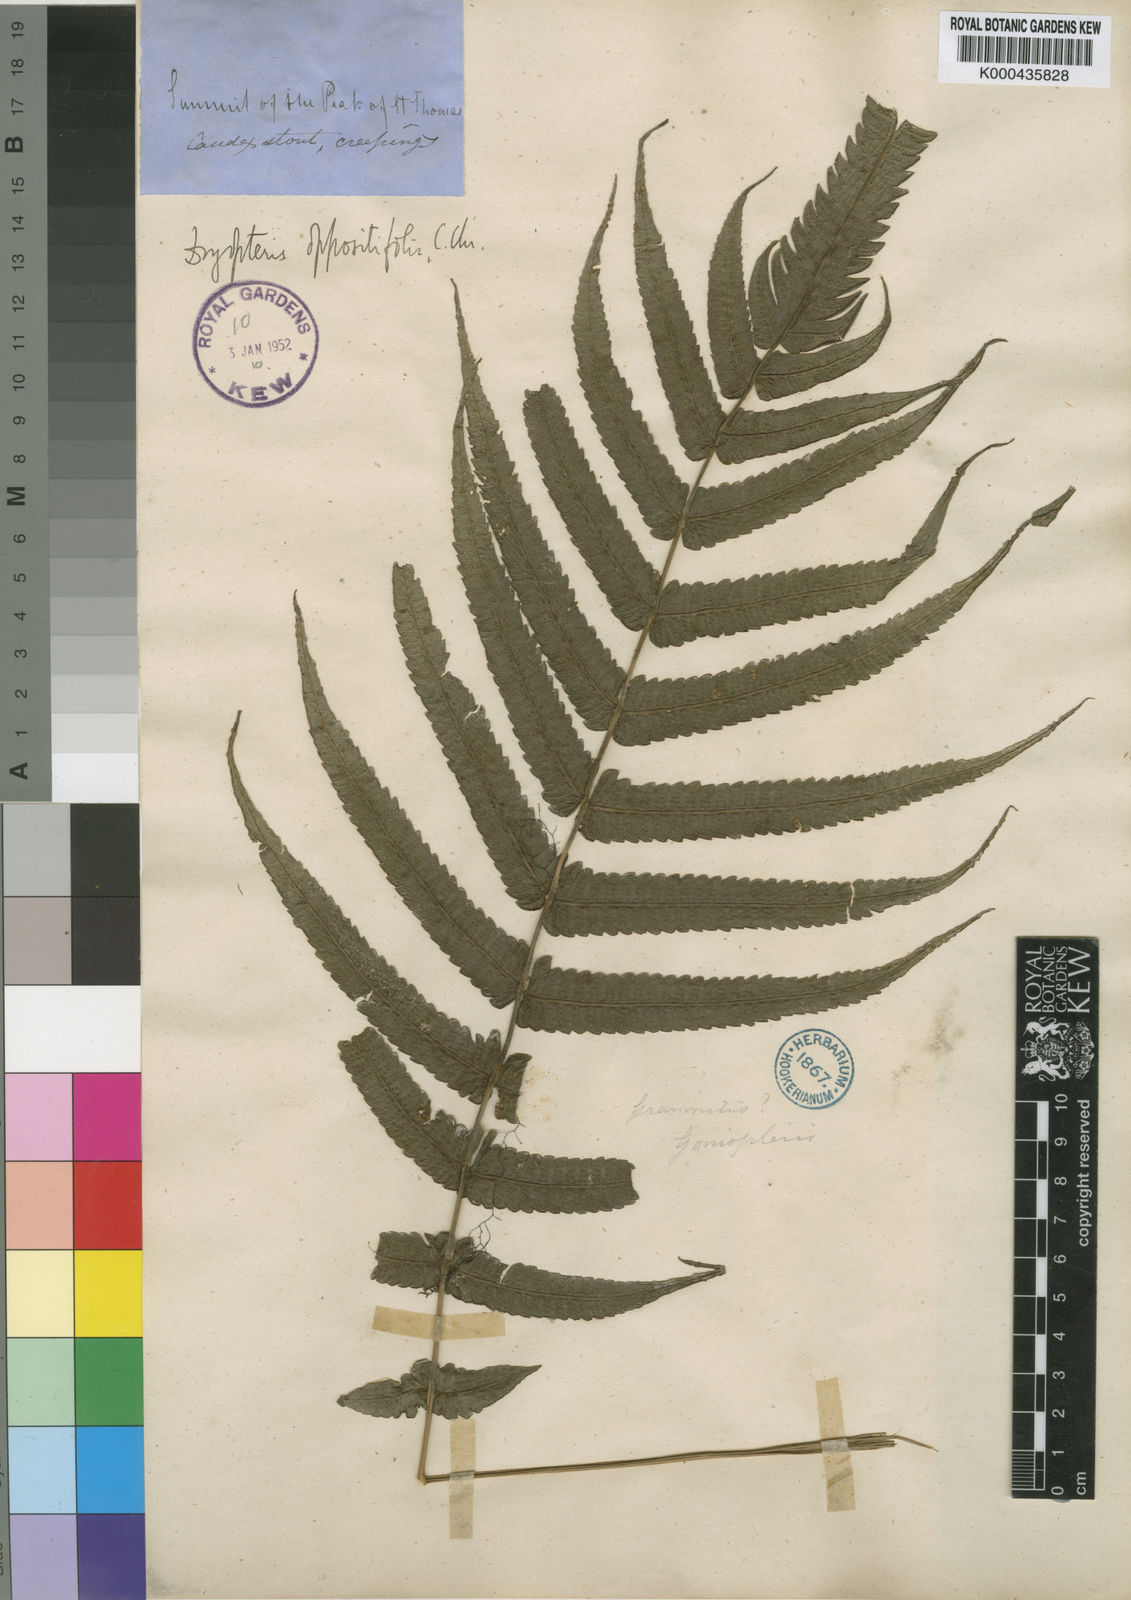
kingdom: Plantae
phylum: Tracheophyta
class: Polypodiopsida
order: Polypodiales
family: Thelypteridaceae
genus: Menisorus
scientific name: Menisorus oppositifolius
